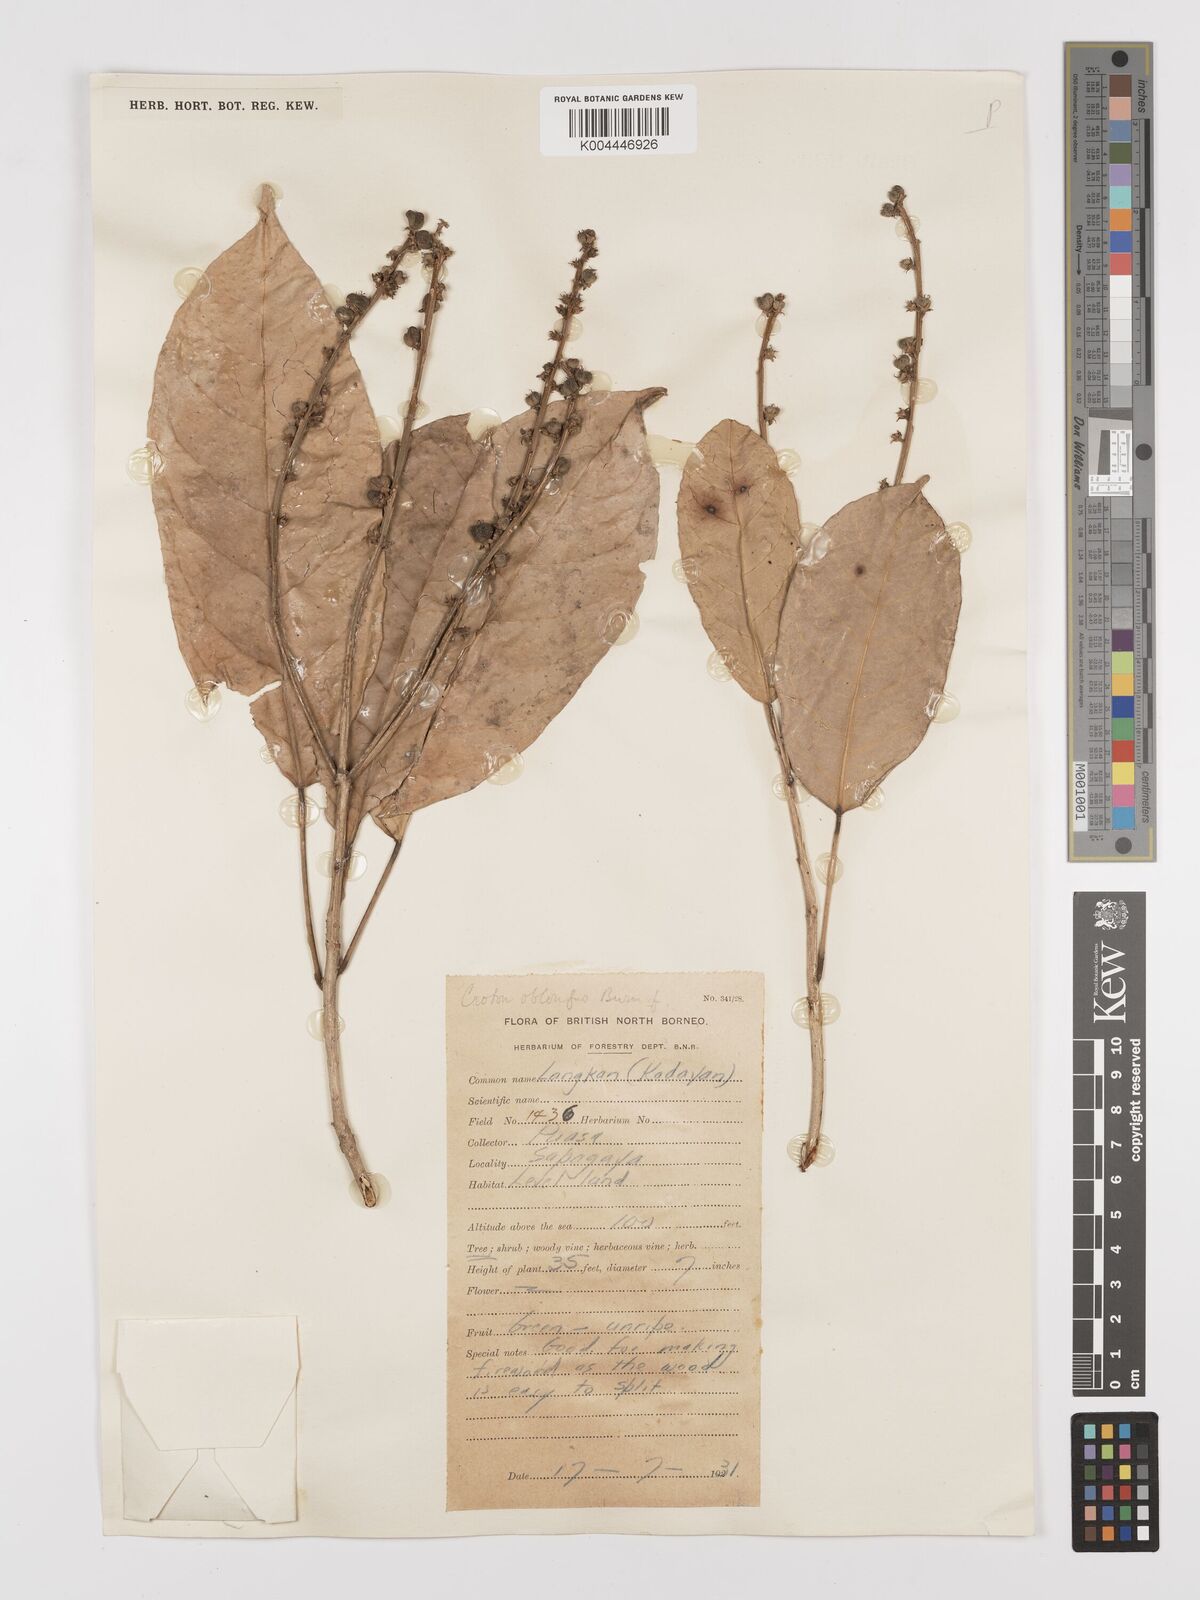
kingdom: Plantae
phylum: Tracheophyta
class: Magnoliopsida
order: Malpighiales
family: Euphorbiaceae
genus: Croton
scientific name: Croton oblongus
